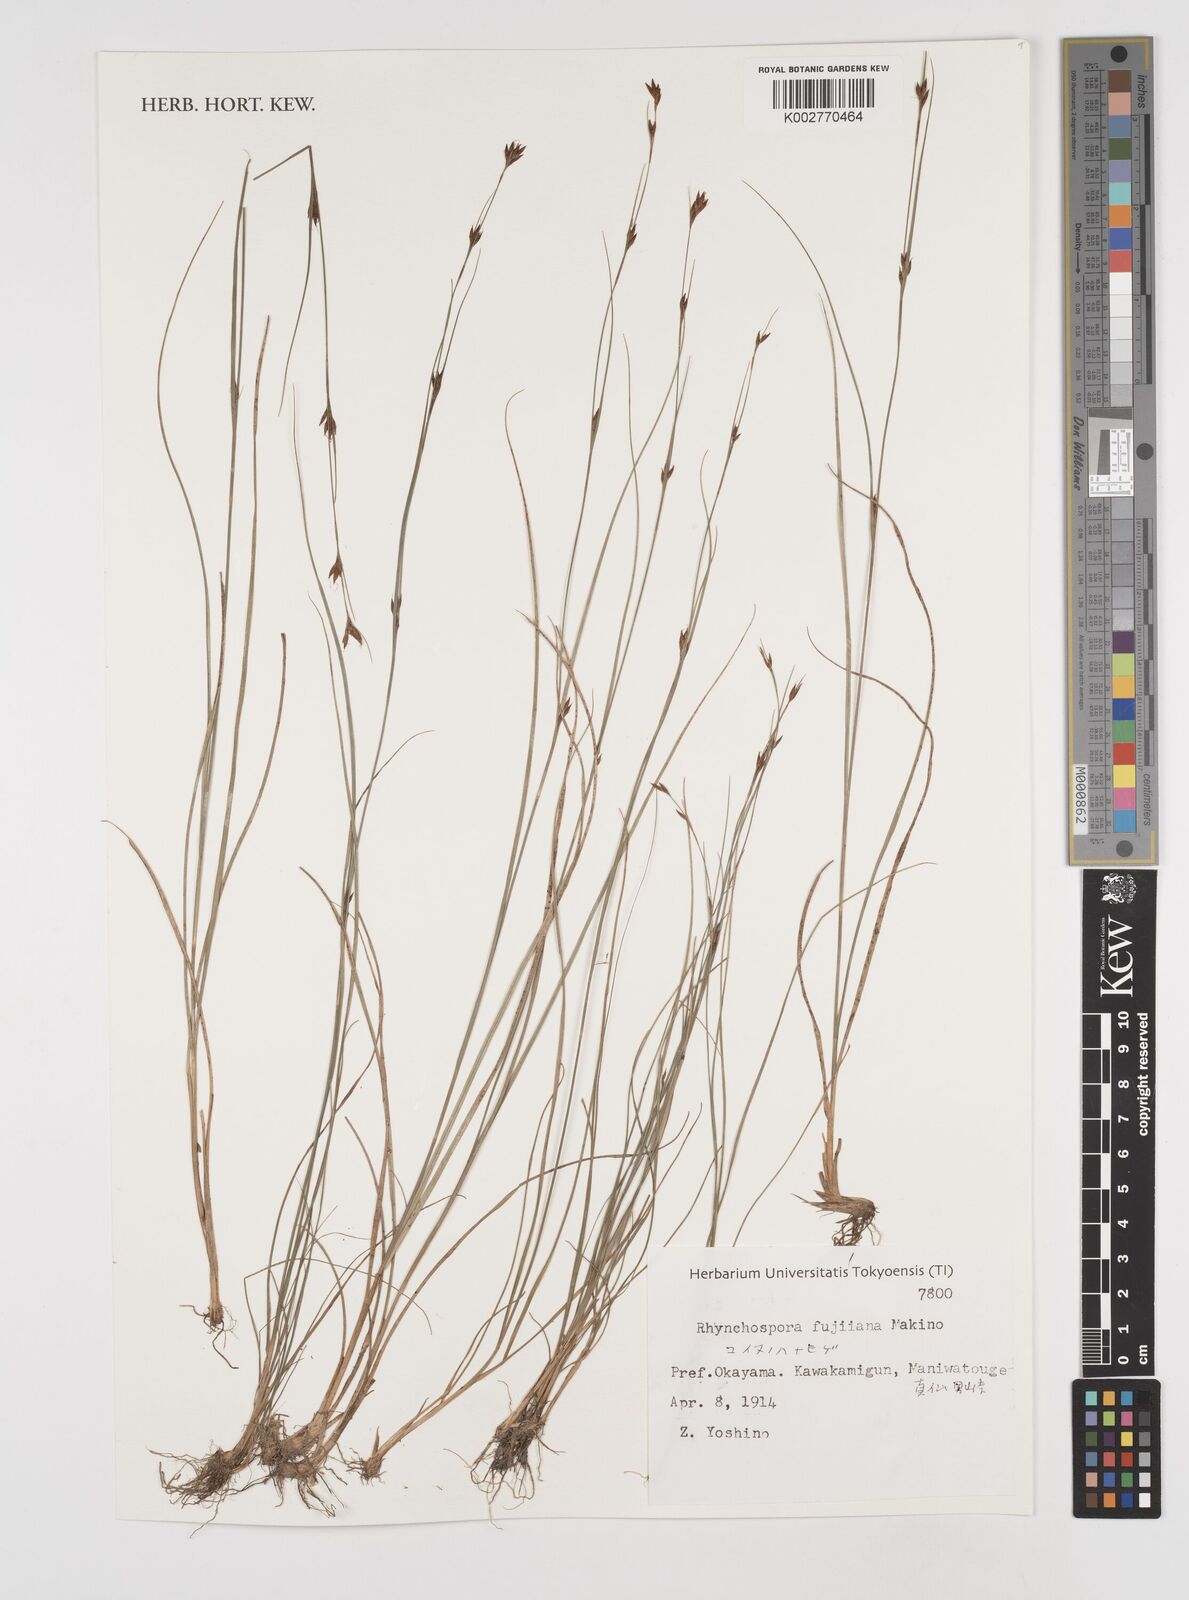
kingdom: Plantae
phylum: Tracheophyta
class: Liliopsida
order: Poales
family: Cyperaceae
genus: Rhynchospora
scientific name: Rhynchospora fujiiana
